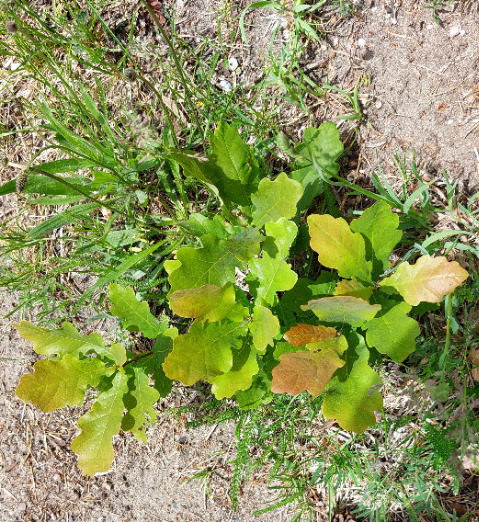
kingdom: Plantae
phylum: Tracheophyta
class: Magnoliopsida
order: Fagales
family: Fagaceae
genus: Quercus
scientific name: Quercus robur
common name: Stilk-eg/almindelig eg
